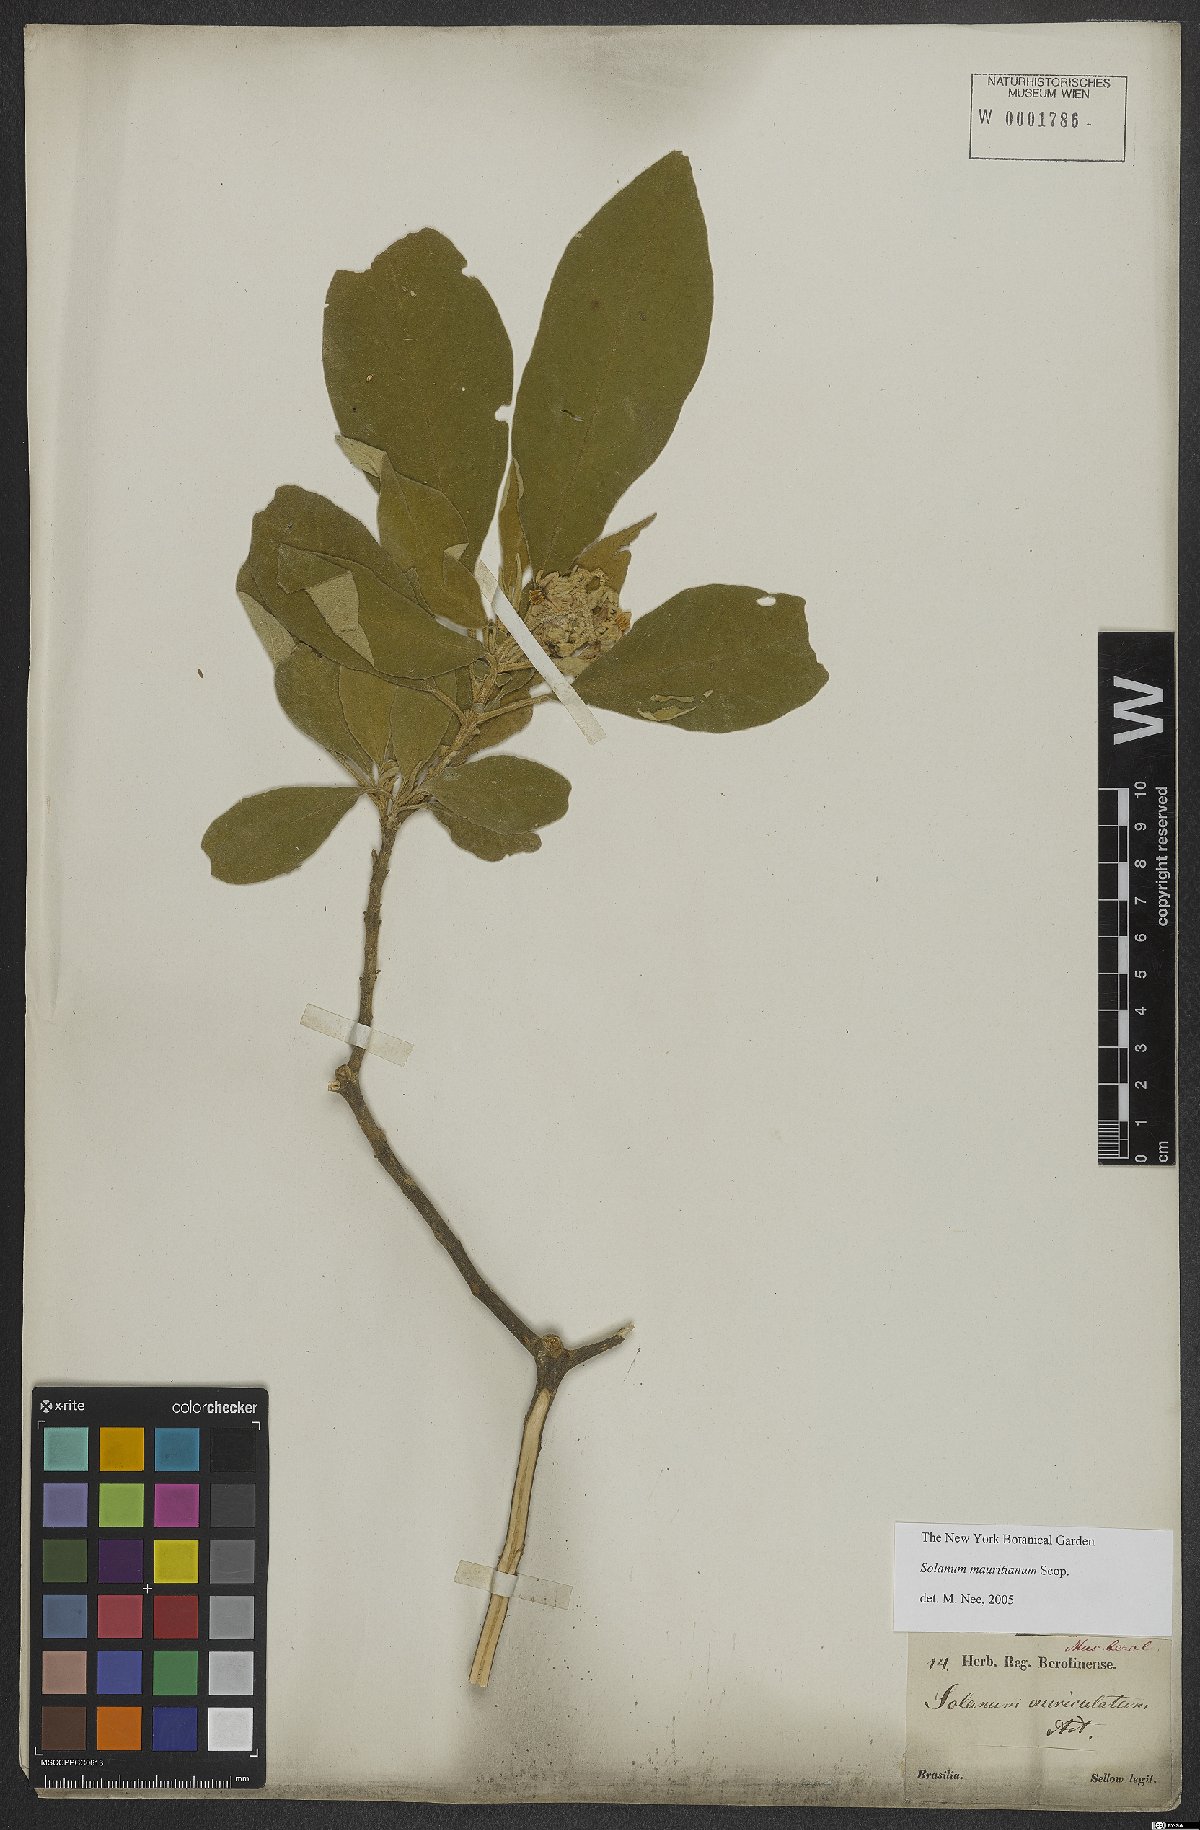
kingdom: Plantae
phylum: Tracheophyta
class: Magnoliopsida
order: Solanales
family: Solanaceae
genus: Solanum
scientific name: Solanum mauritianum
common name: Earleaf nightshade
